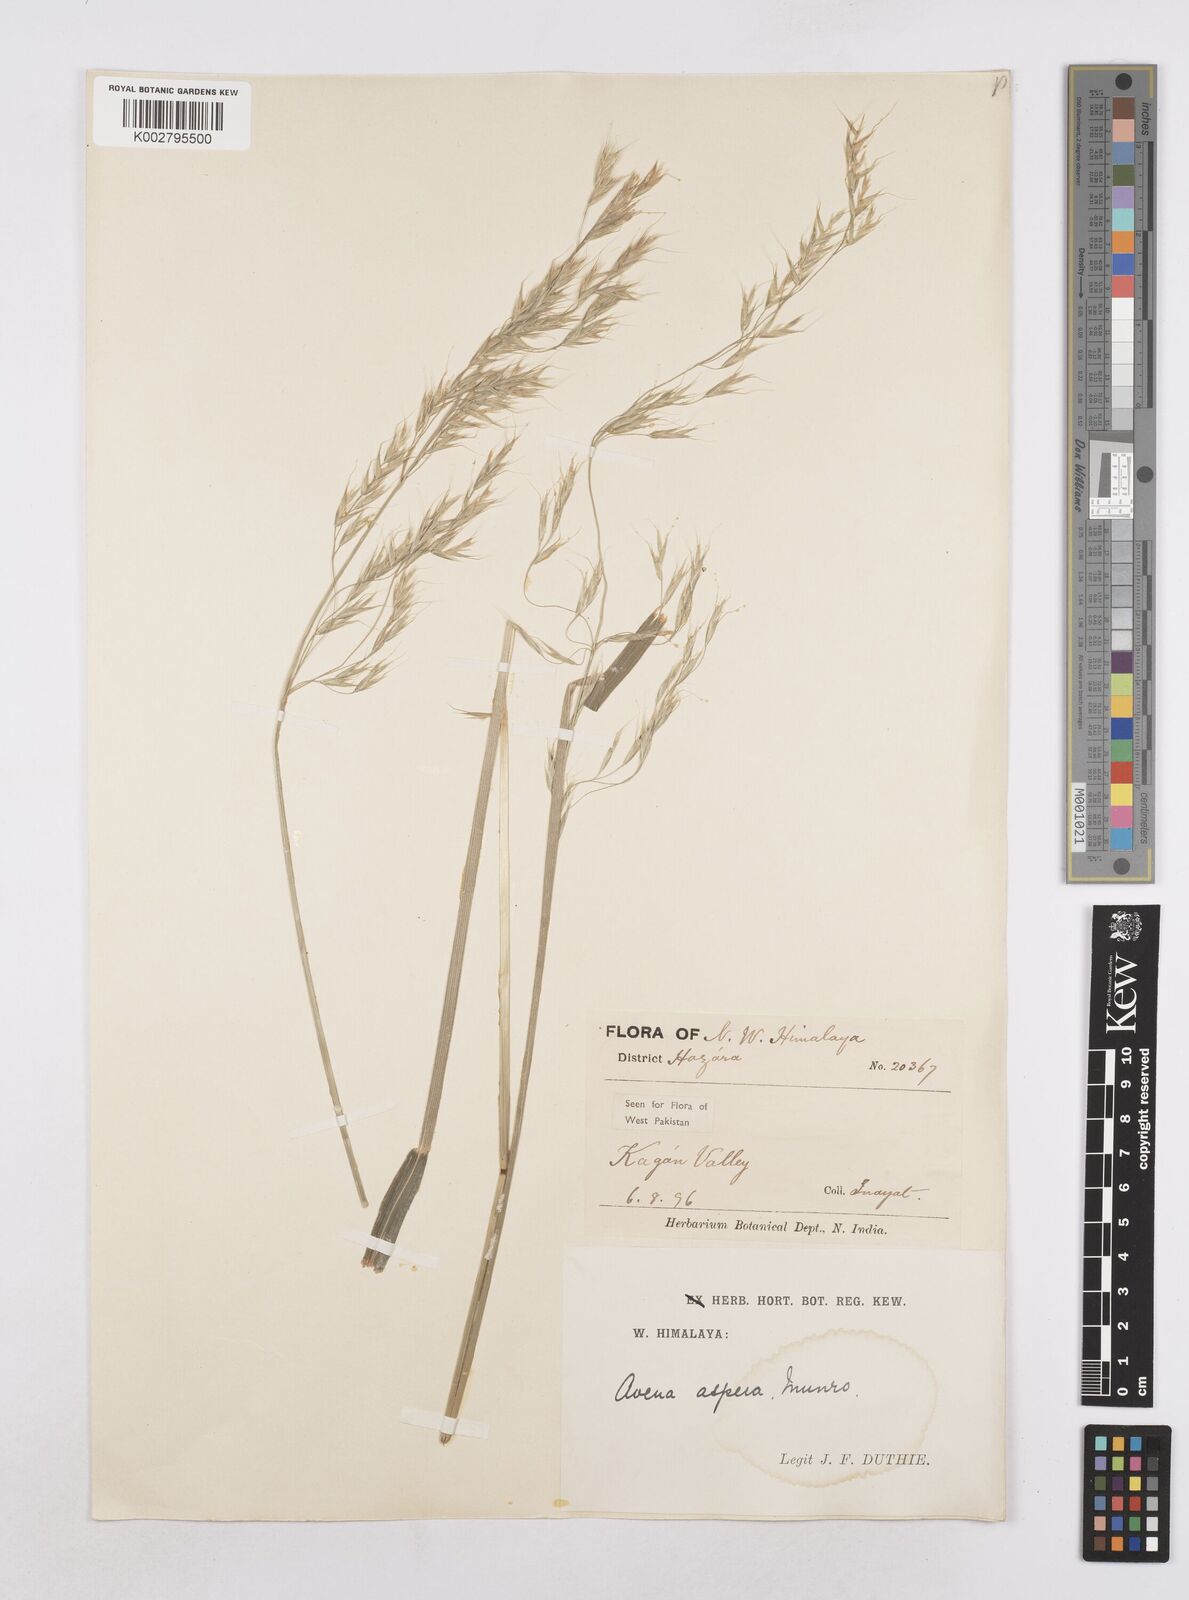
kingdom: Plantae
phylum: Tracheophyta
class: Liliopsida
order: Poales
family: Poaceae
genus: Trisetopsis
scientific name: Trisetopsis junghuhnii
